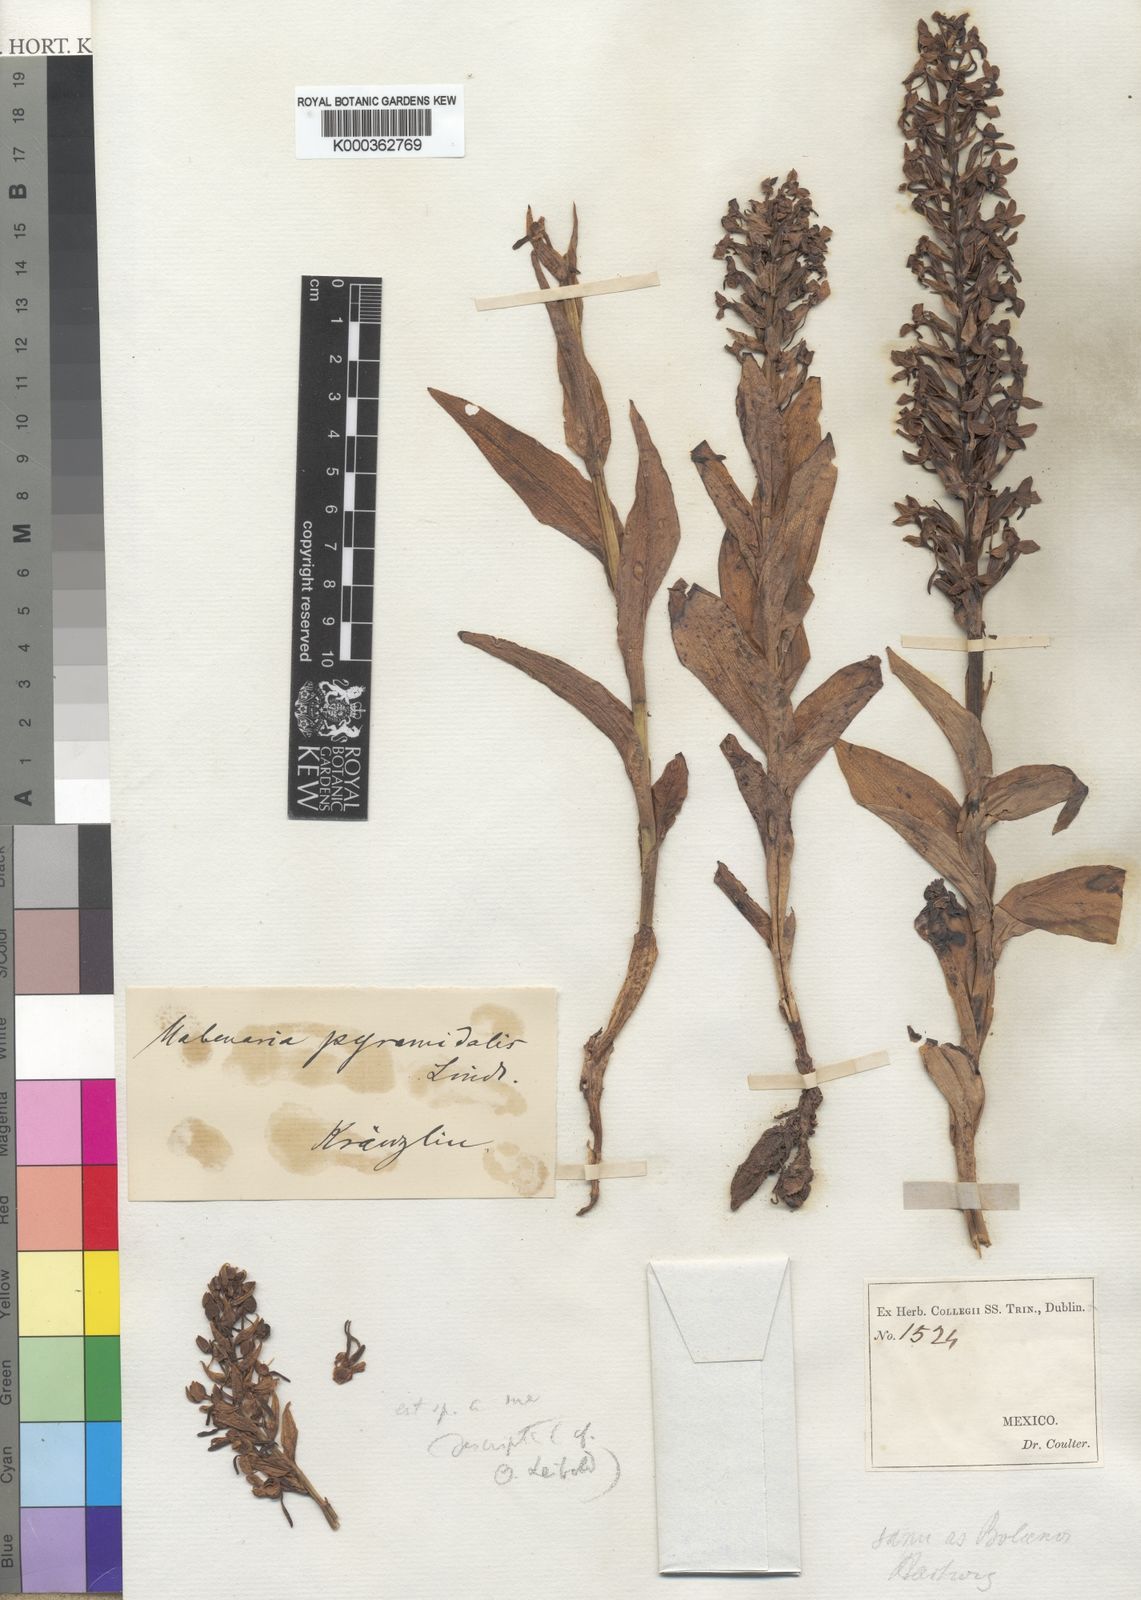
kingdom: Plantae
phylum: Tracheophyta
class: Liliopsida
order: Asparagales
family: Orchidaceae
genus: Habenaria
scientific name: Habenaria strictissima
